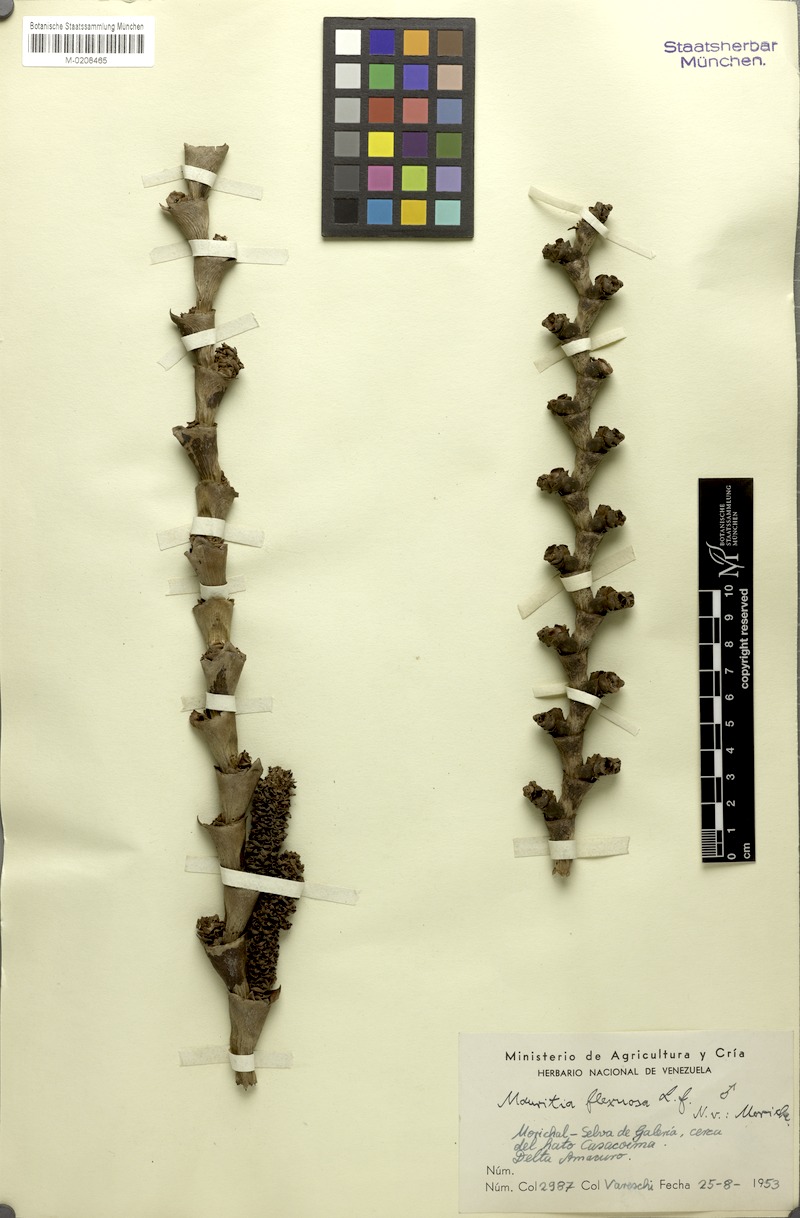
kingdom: Plantae
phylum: Tracheophyta
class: Liliopsida
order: Arecales
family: Arecaceae
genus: Mauritia
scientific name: Mauritia flexuosa
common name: Tree-of-life
